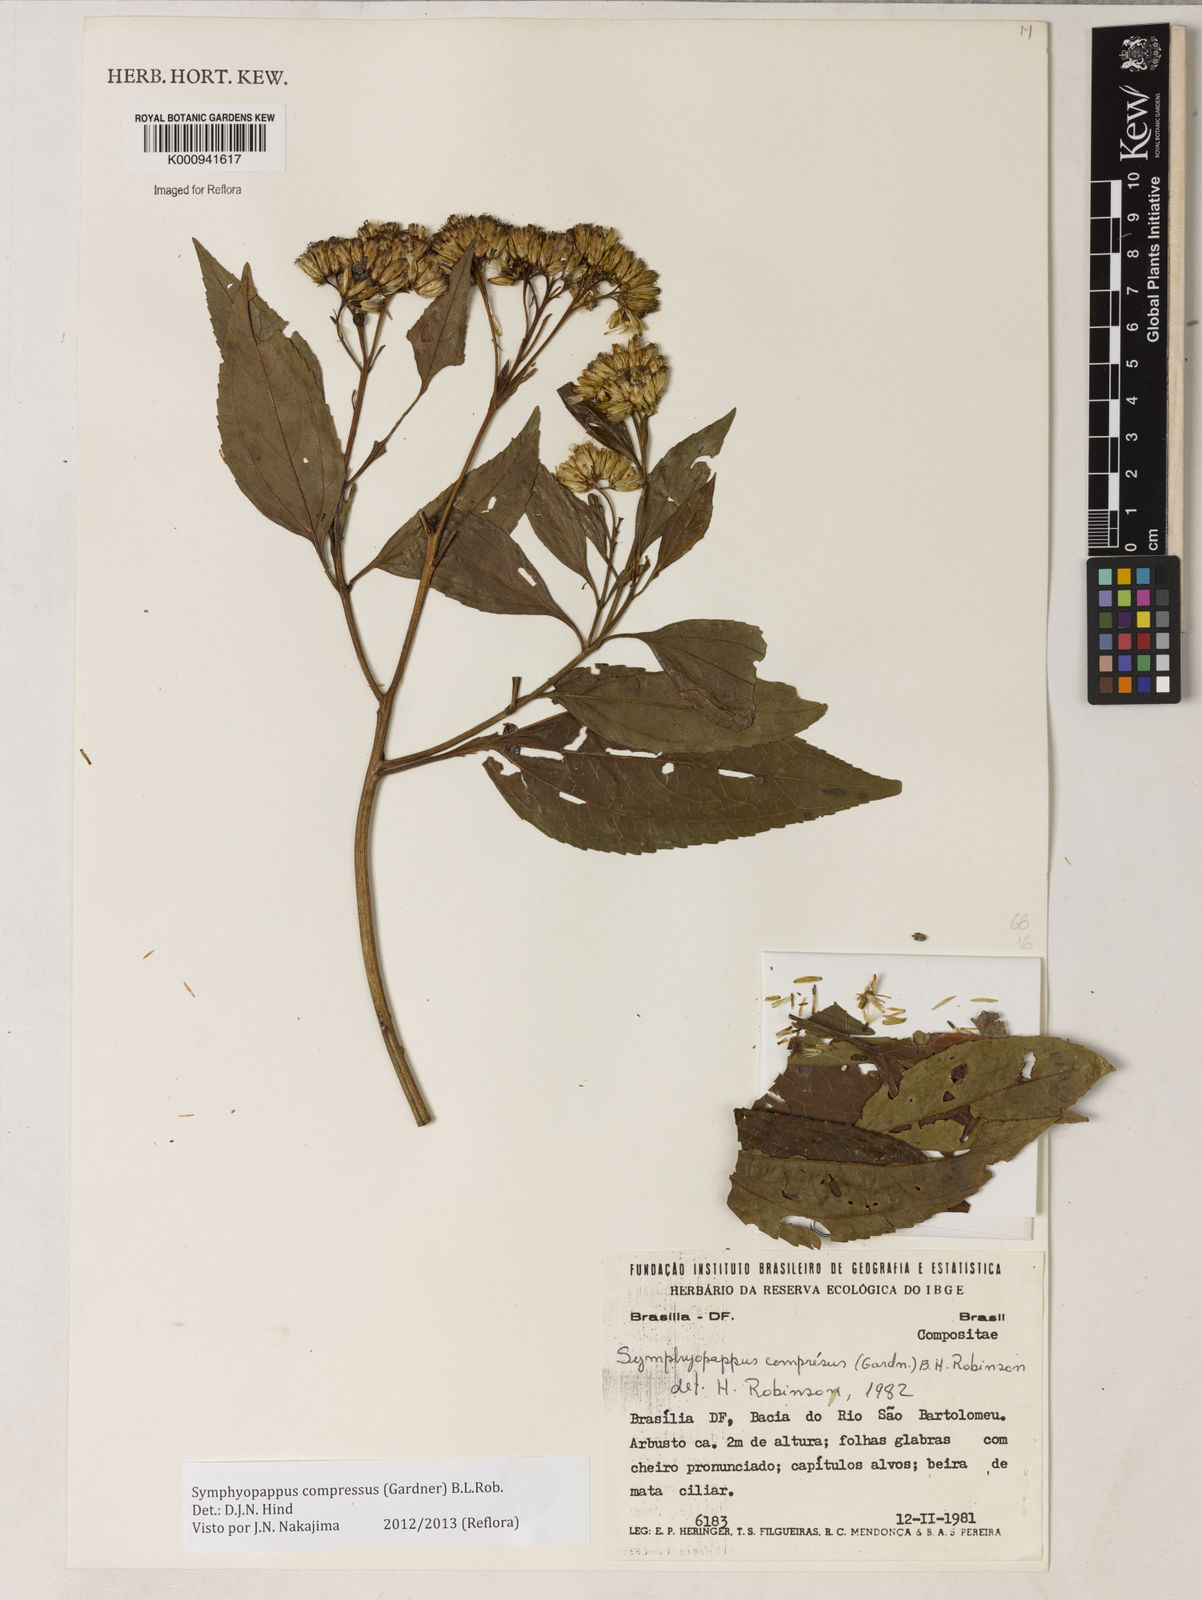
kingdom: Plantae
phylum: Tracheophyta
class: Magnoliopsida
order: Asterales
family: Asteraceae
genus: Symphyopappus
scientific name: Symphyopappus compressus
